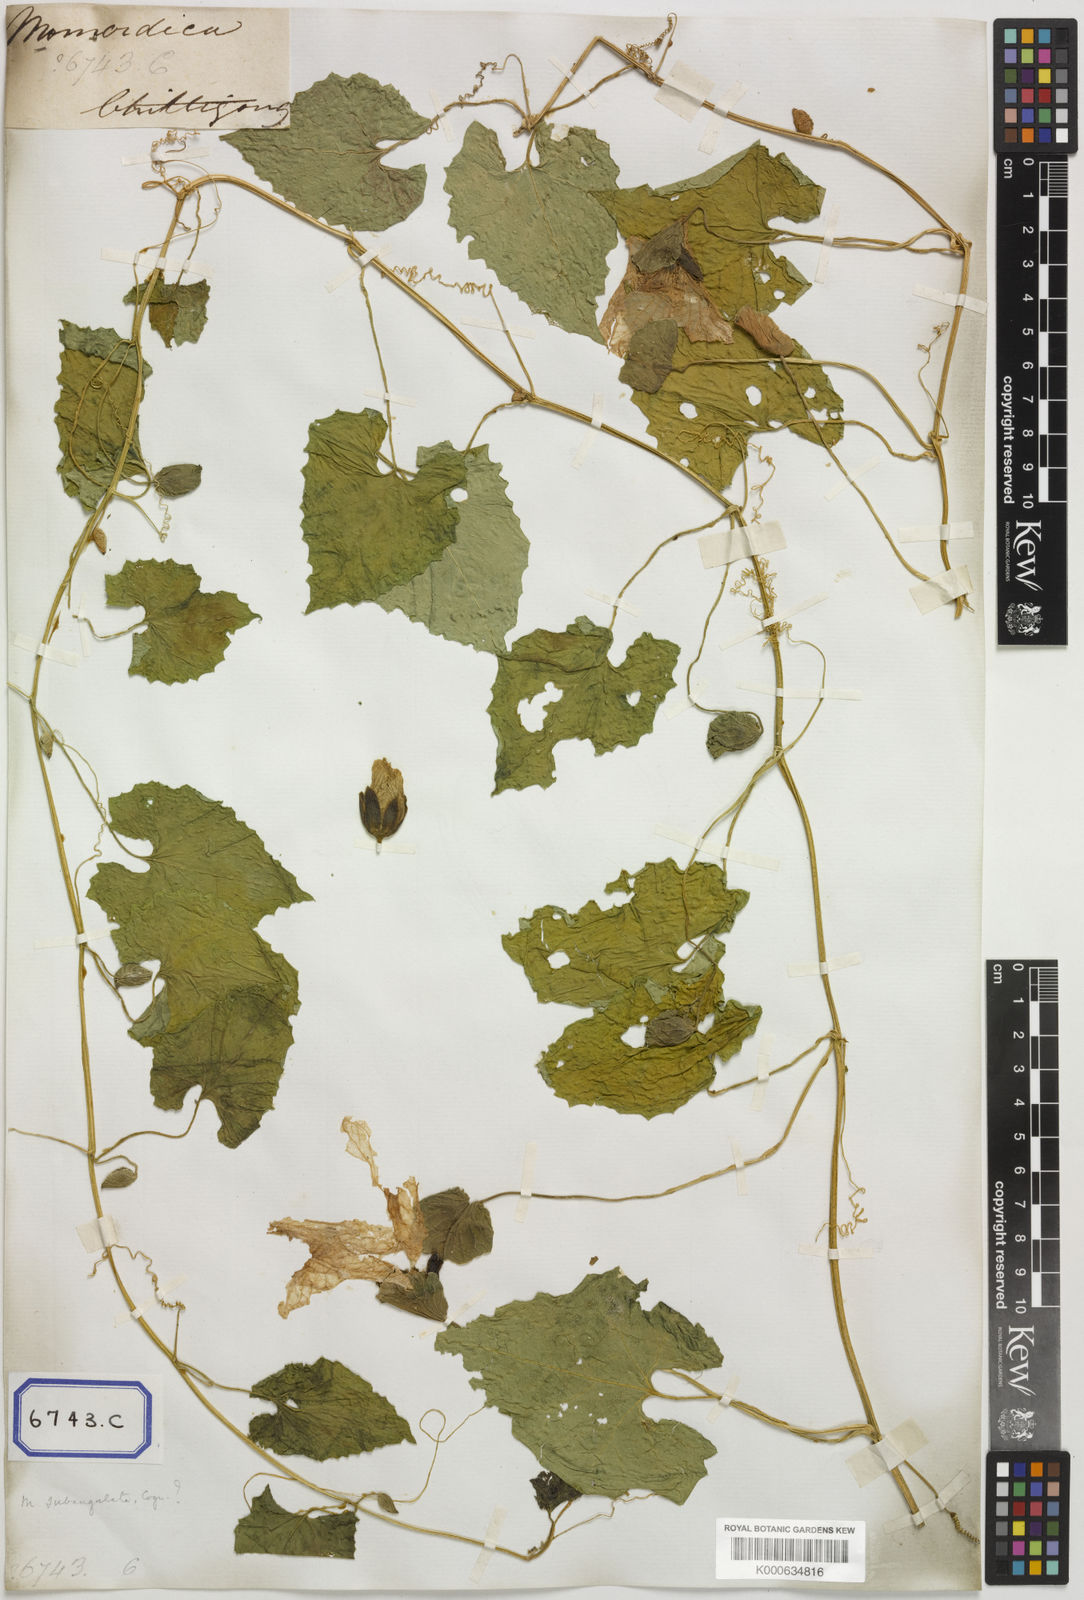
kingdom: Plantae
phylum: Tracheophyta
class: Magnoliopsida
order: Cucurbitales
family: Cucurbitaceae
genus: Momordica
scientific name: Momordica subangulata
